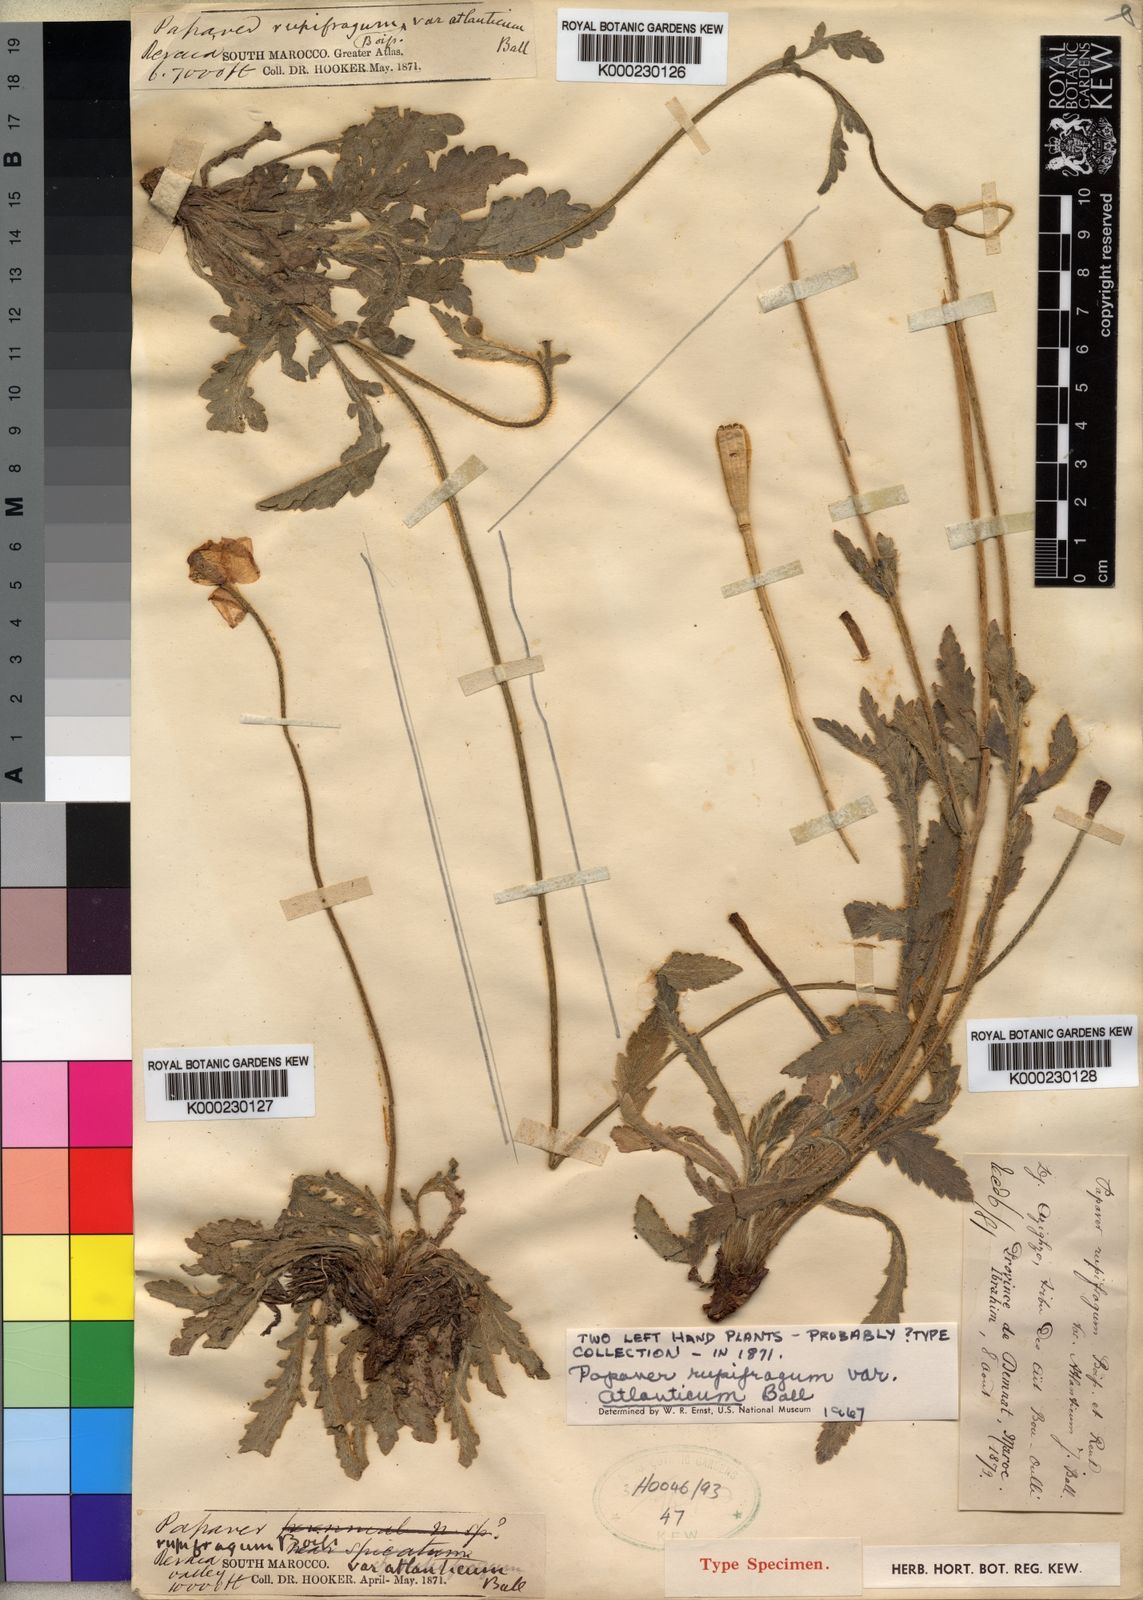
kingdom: Plantae
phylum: Tracheophyta
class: Magnoliopsida
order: Ranunculales
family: Papaveraceae
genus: Papaver
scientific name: Papaver rupifragum
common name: Spanish poppy
